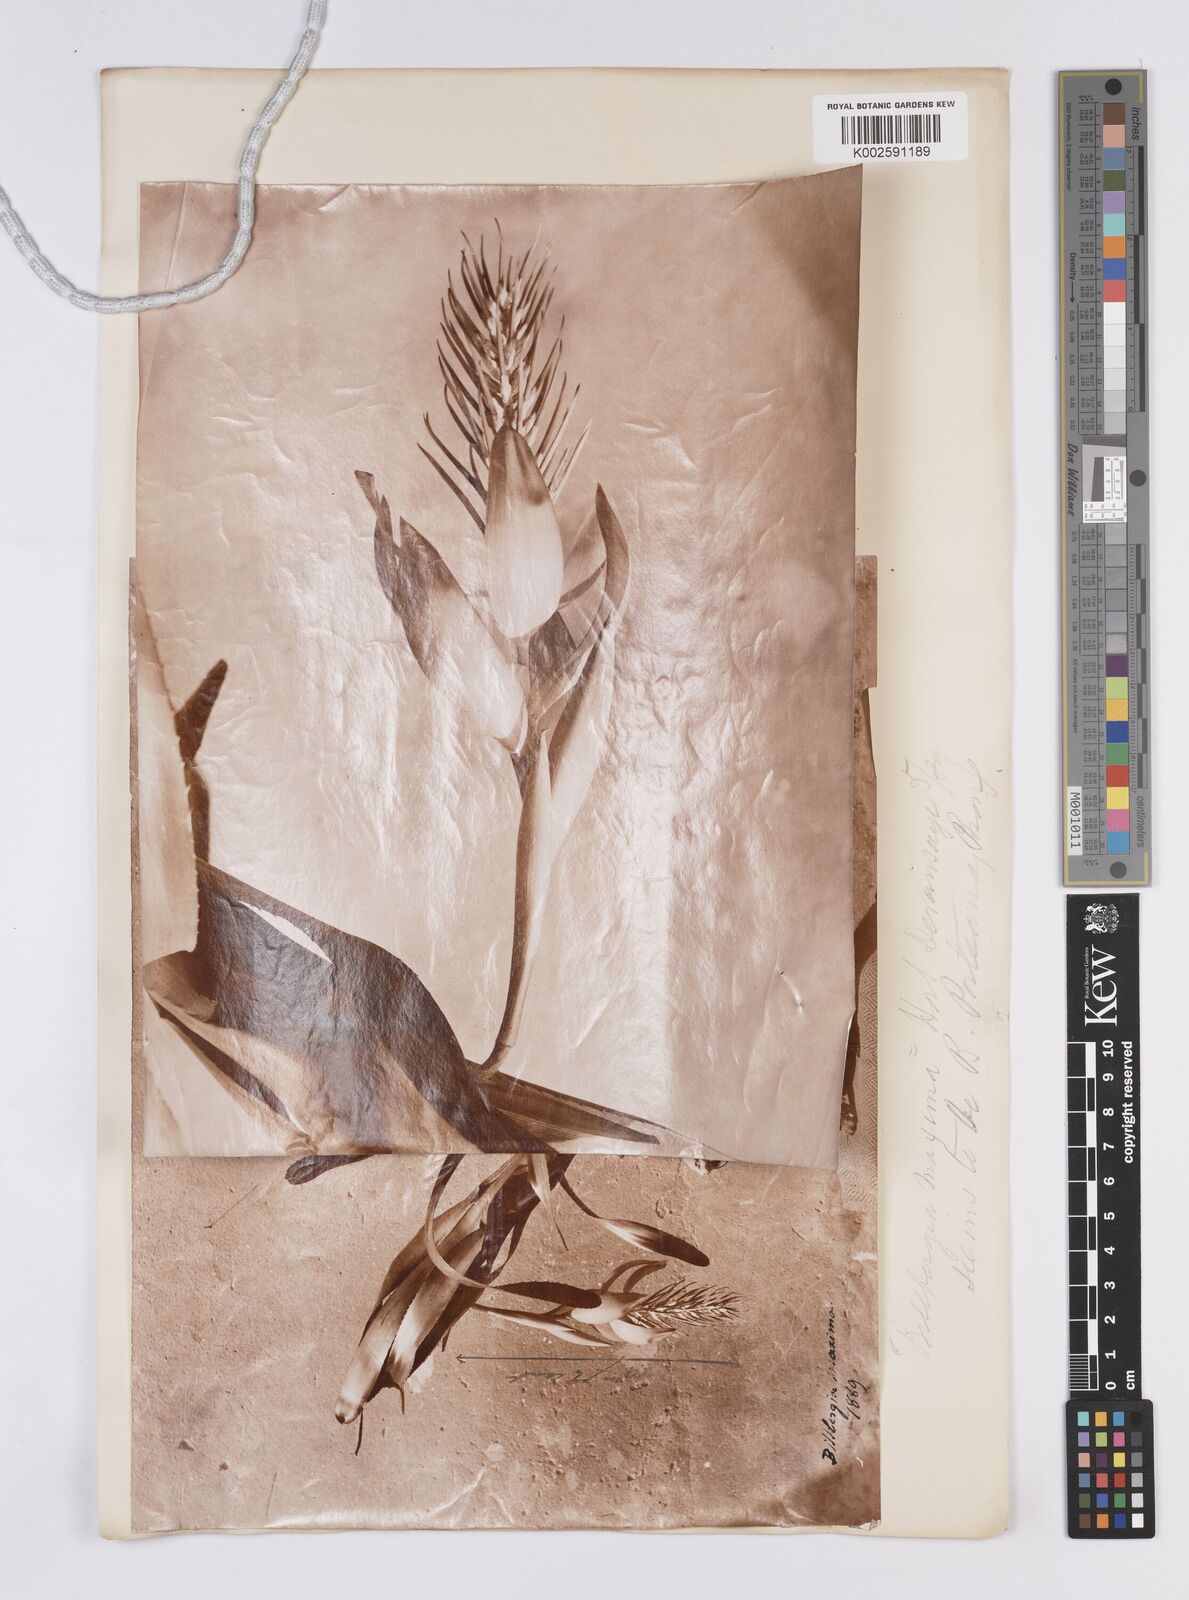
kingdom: Plantae
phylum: Tracheophyta
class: Liliopsida
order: Poales
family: Bromeliaceae
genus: Billbergia
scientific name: Billbergia porteana
